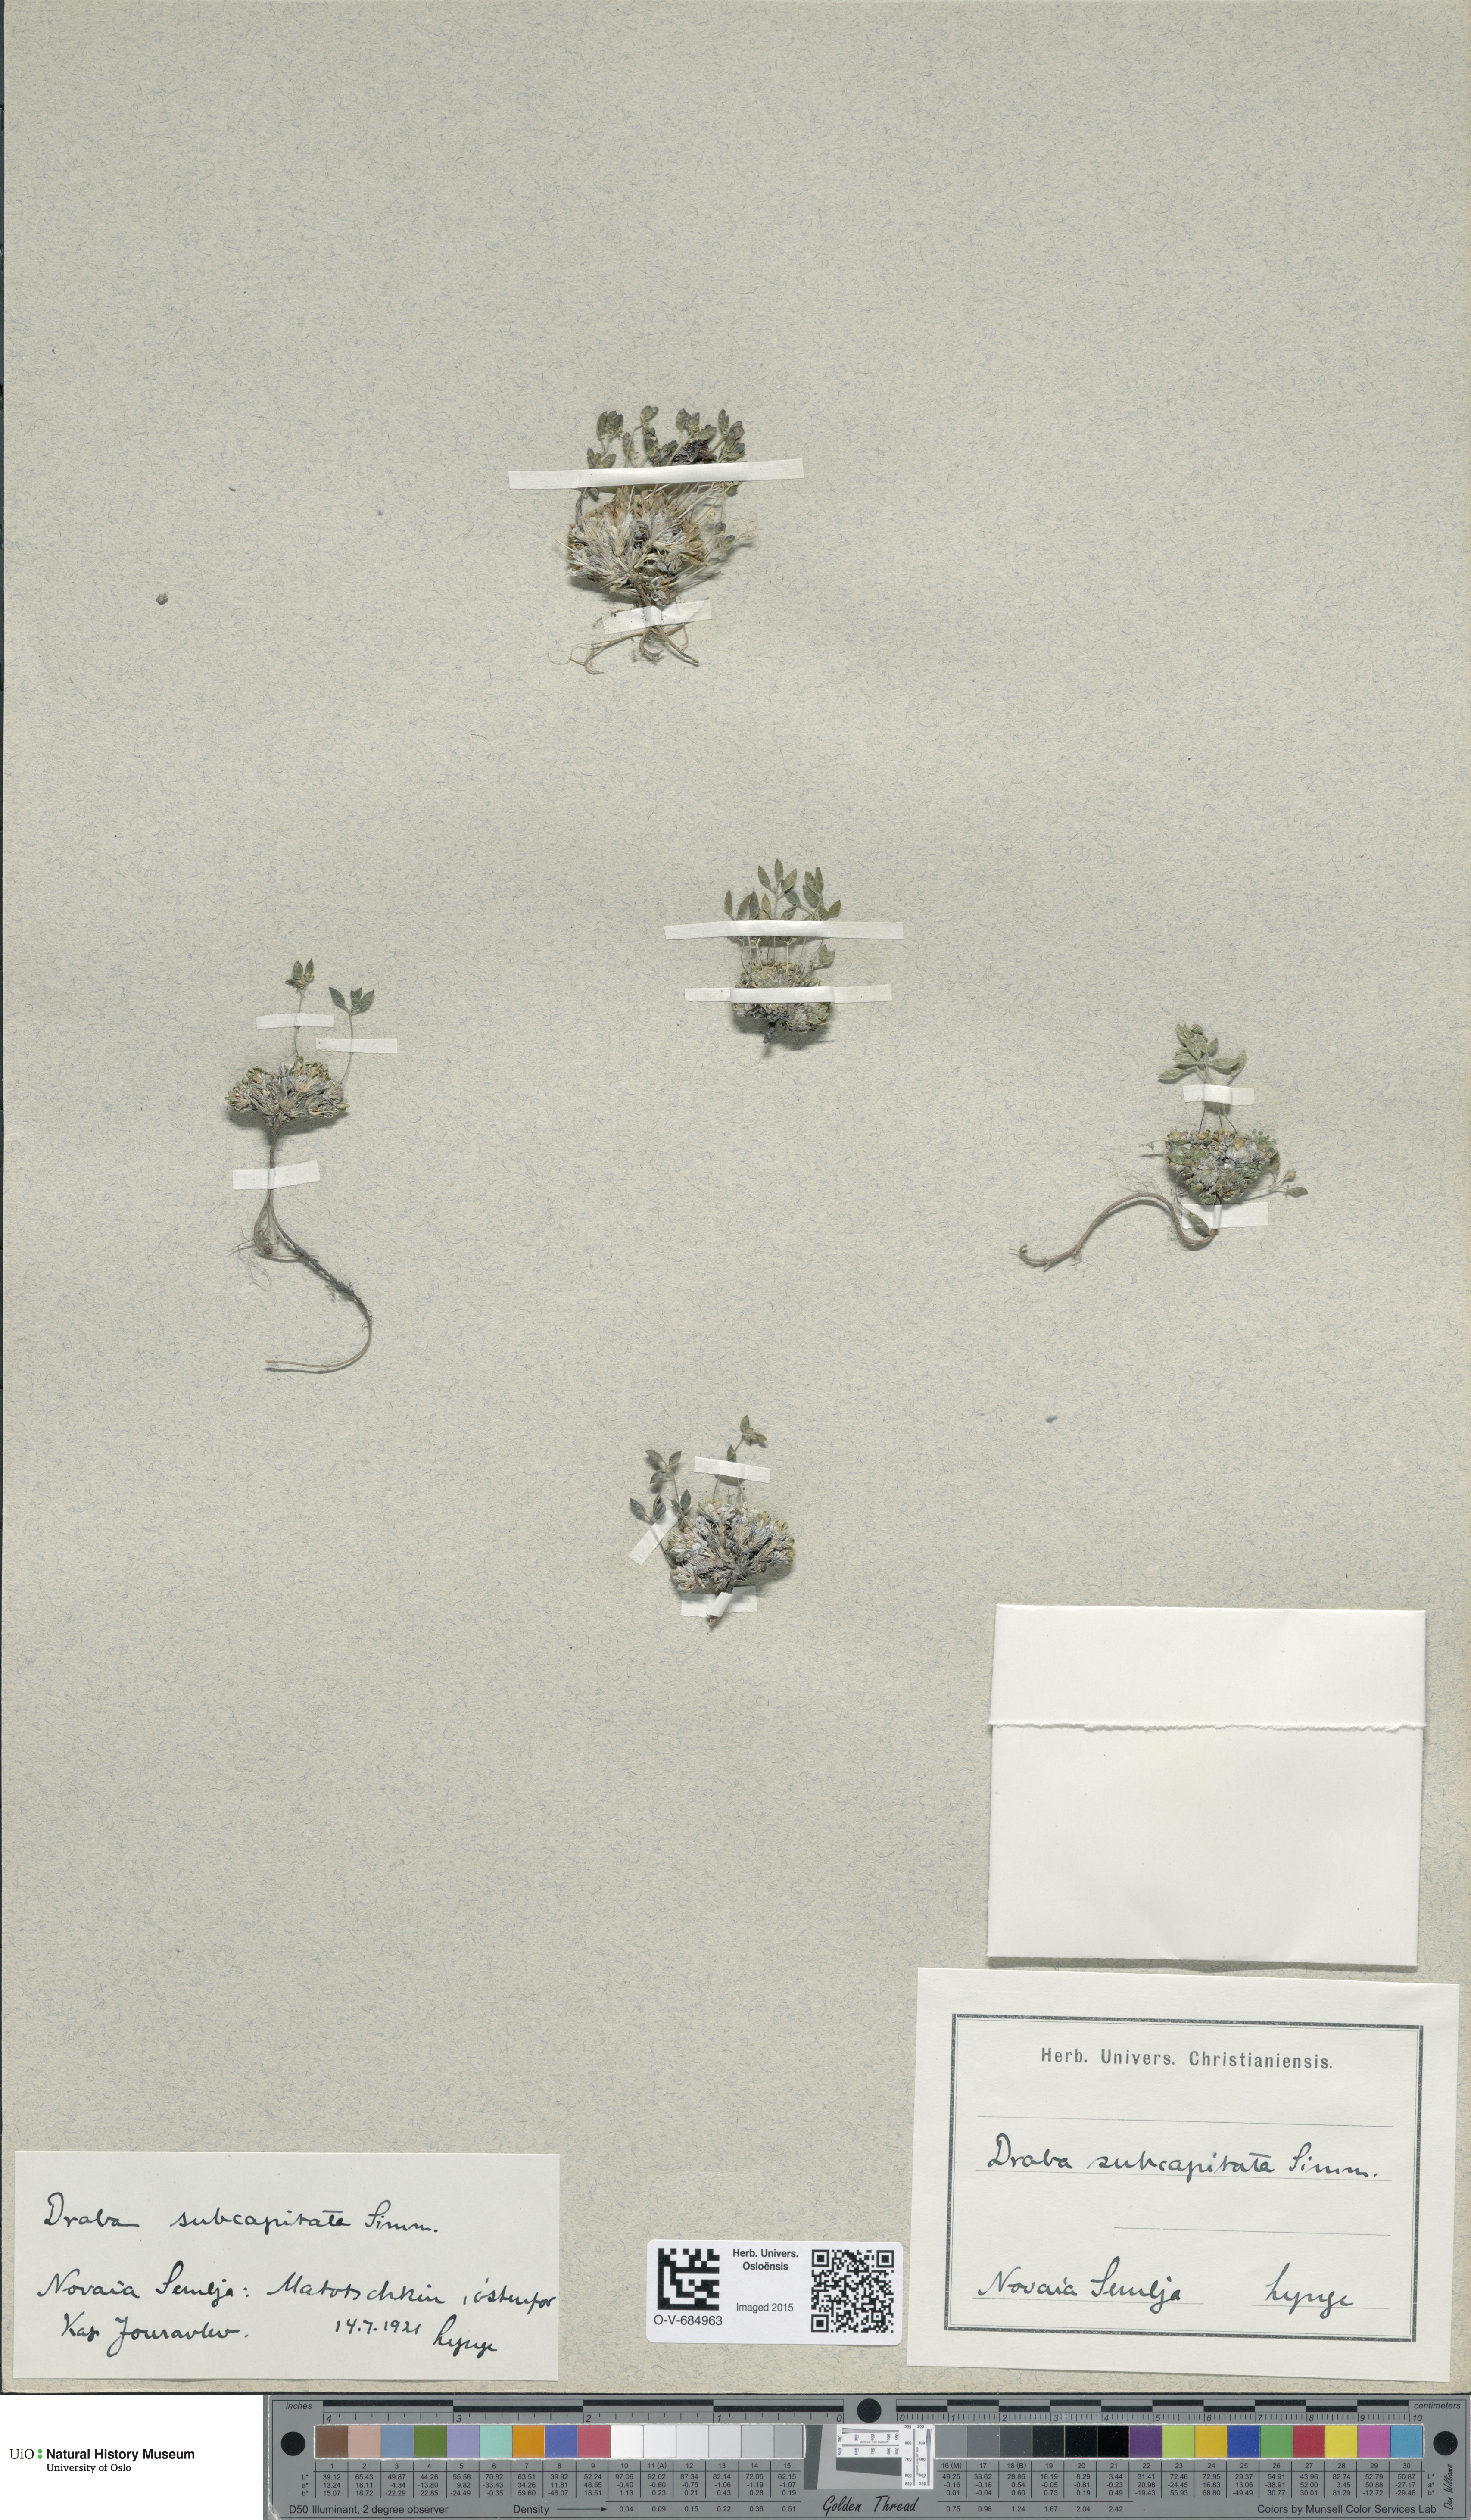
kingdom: Plantae
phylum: Tracheophyta
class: Magnoliopsida
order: Brassicales
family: Brassicaceae
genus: Draba
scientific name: Draba subcapitata
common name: Ellesmere island draba
